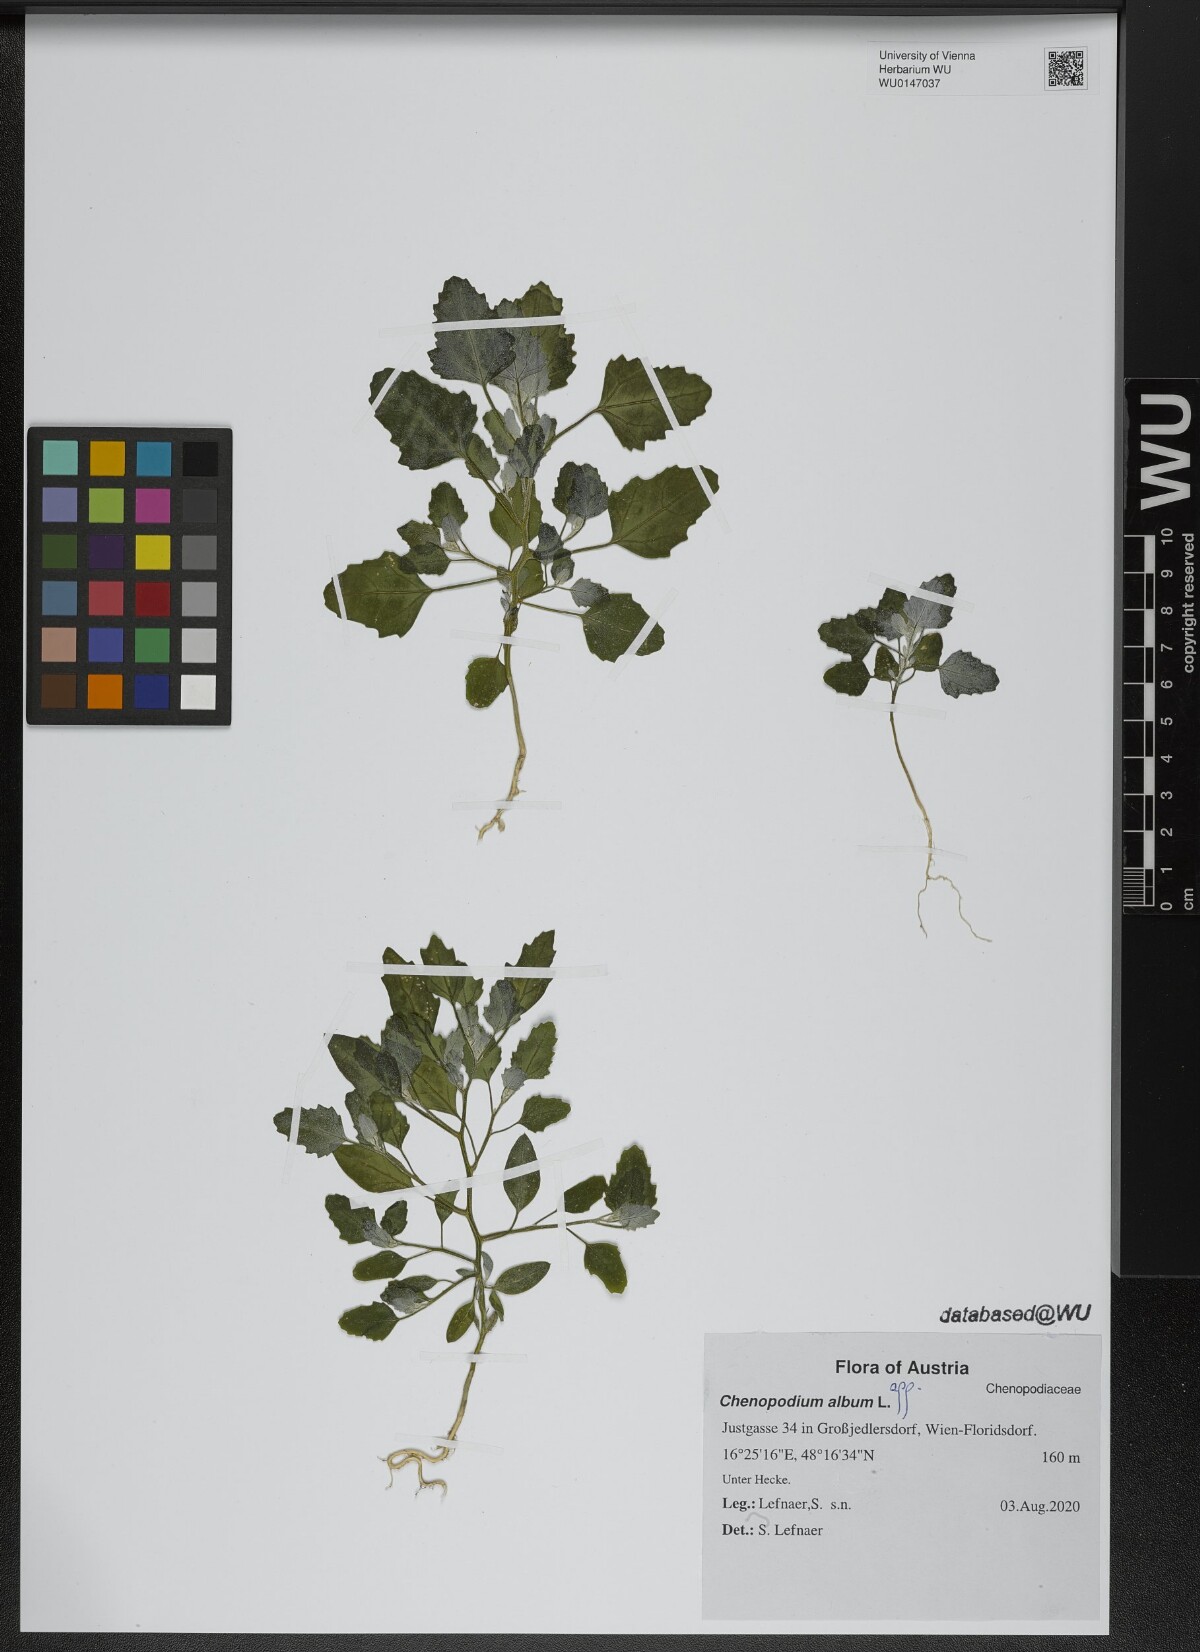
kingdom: Plantae
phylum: Tracheophyta
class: Magnoliopsida
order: Caryophyllales
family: Amaranthaceae
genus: Chenopodium
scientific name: Chenopodium album
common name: Fat-hen
